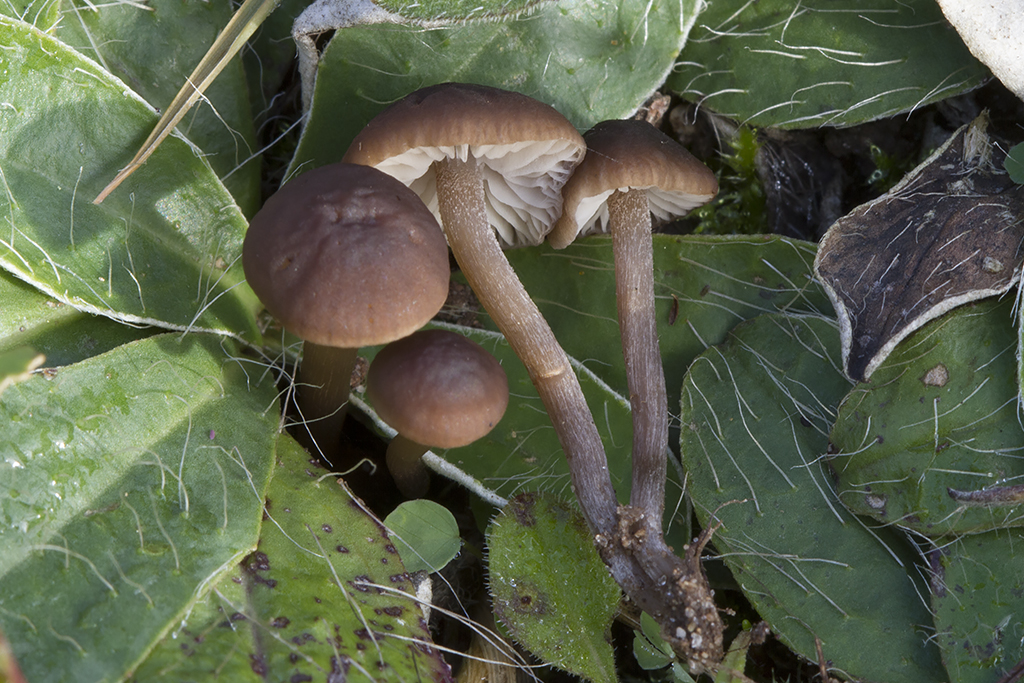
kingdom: Fungi
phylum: Basidiomycota
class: Agaricomycetes
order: Agaricales
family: Tricholomataceae
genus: Dermoloma
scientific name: Dermoloma pseudocuneifolium
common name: mark-nonnehat
